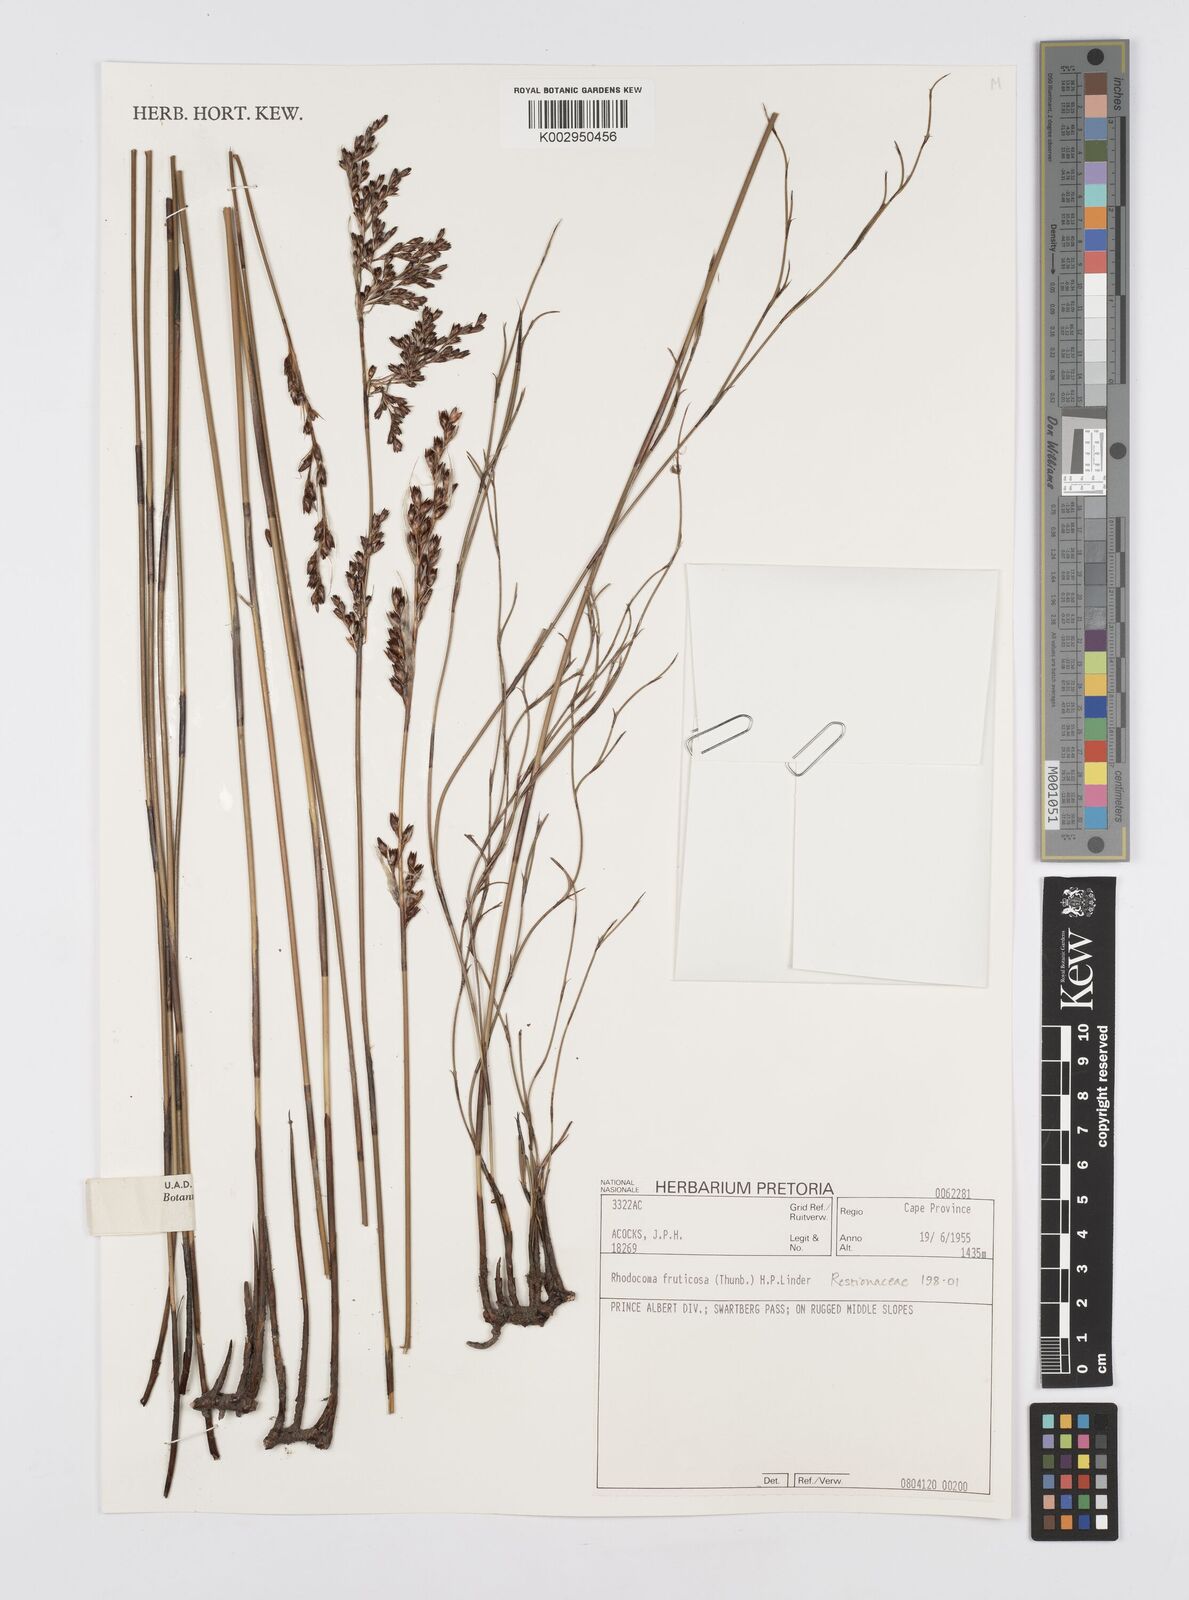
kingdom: Plantae
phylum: Tracheophyta
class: Liliopsida
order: Poales
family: Restionaceae
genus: Rhodocoma
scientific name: Rhodocoma fruticosa
